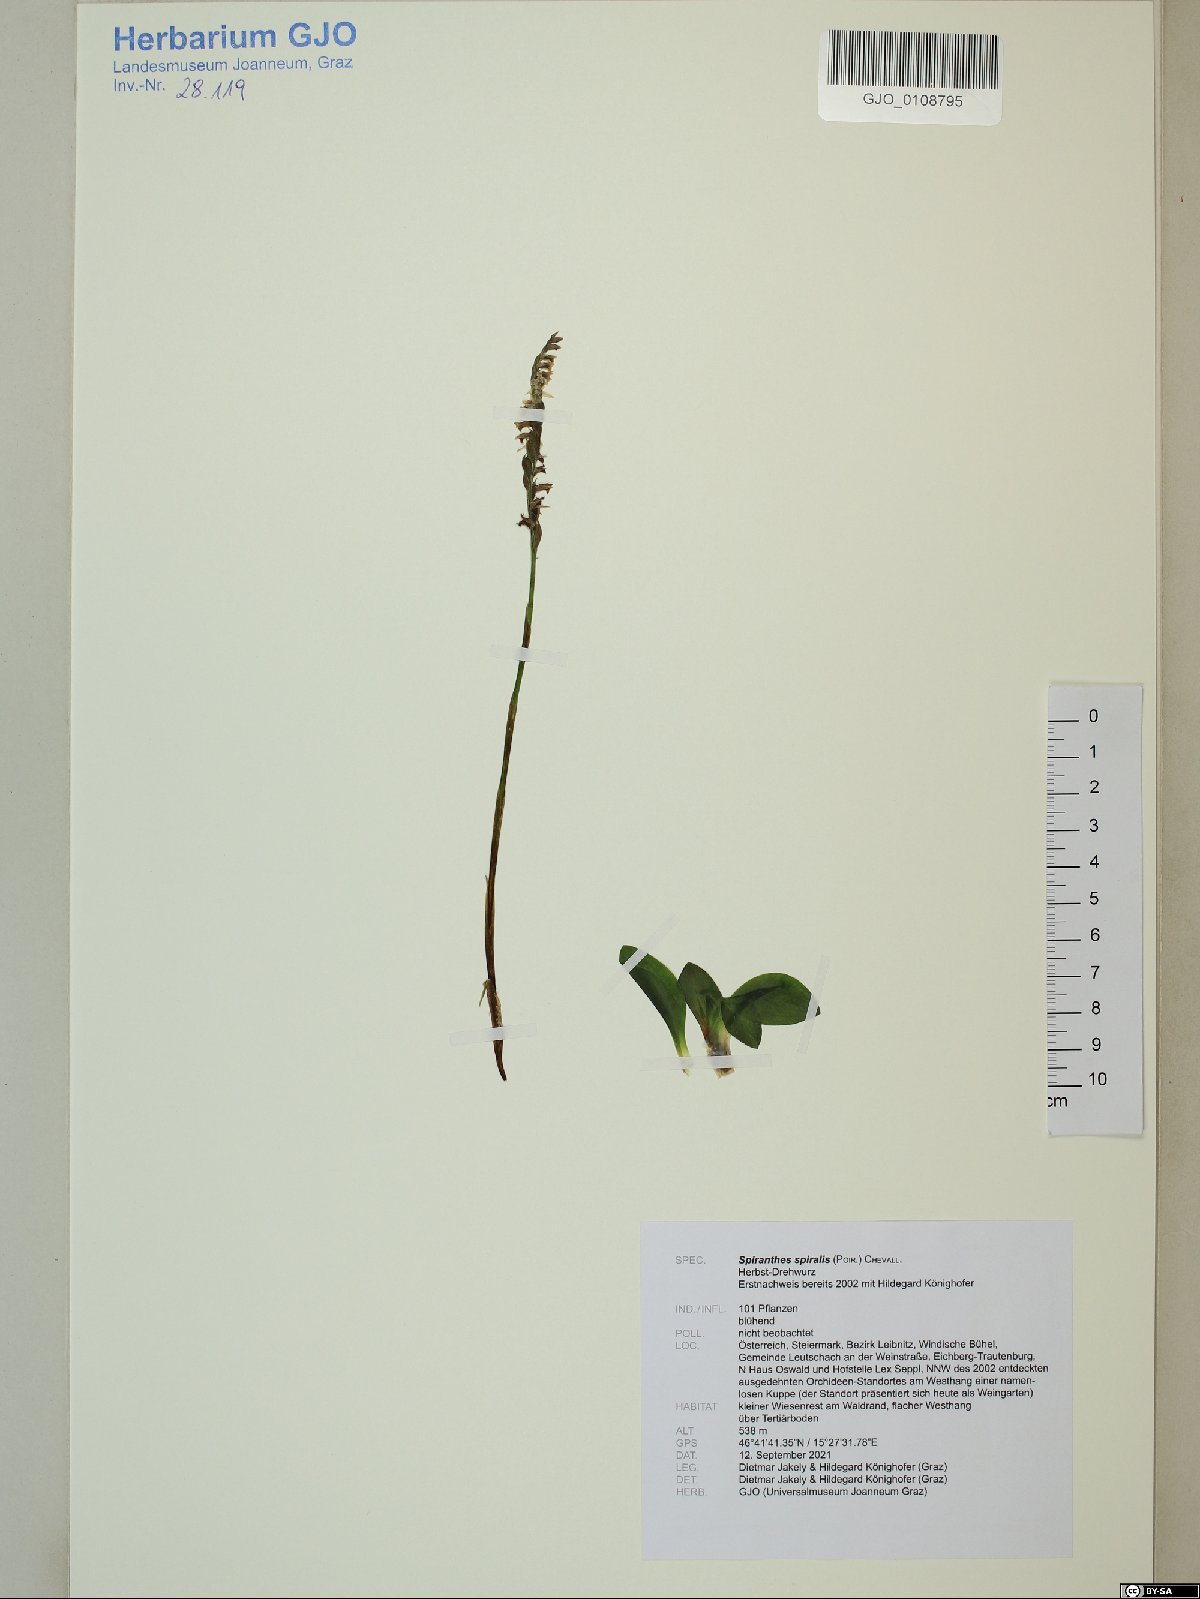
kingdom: Plantae
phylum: Tracheophyta
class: Liliopsida
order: Asparagales
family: Orchidaceae
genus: Spiranthes
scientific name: Spiranthes spiralis
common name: Autumn lady's-tresses
